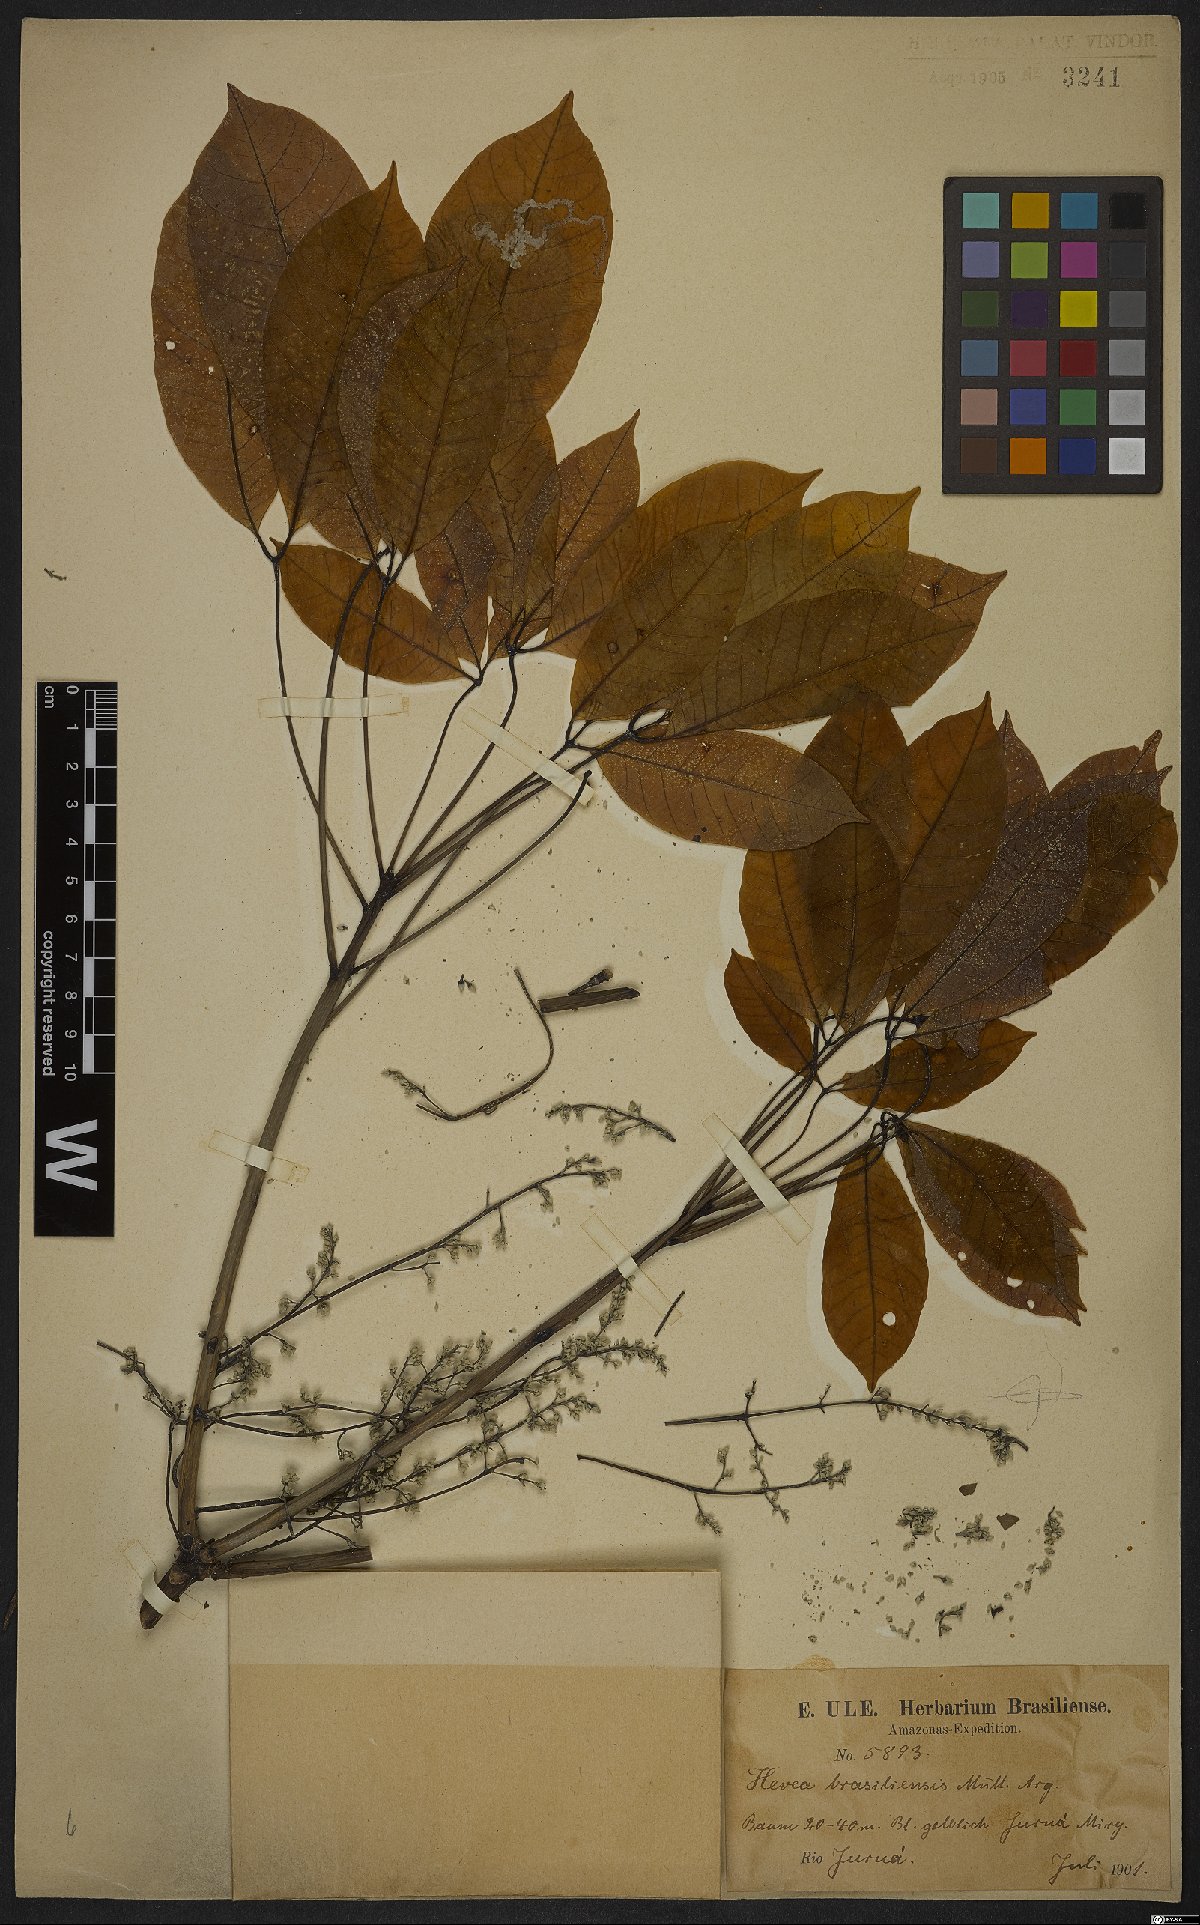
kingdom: Plantae
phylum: Tracheophyta
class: Magnoliopsida
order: Malpighiales
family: Euphorbiaceae
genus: Hevea
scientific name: Hevea brasiliensis
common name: Natural rubber
